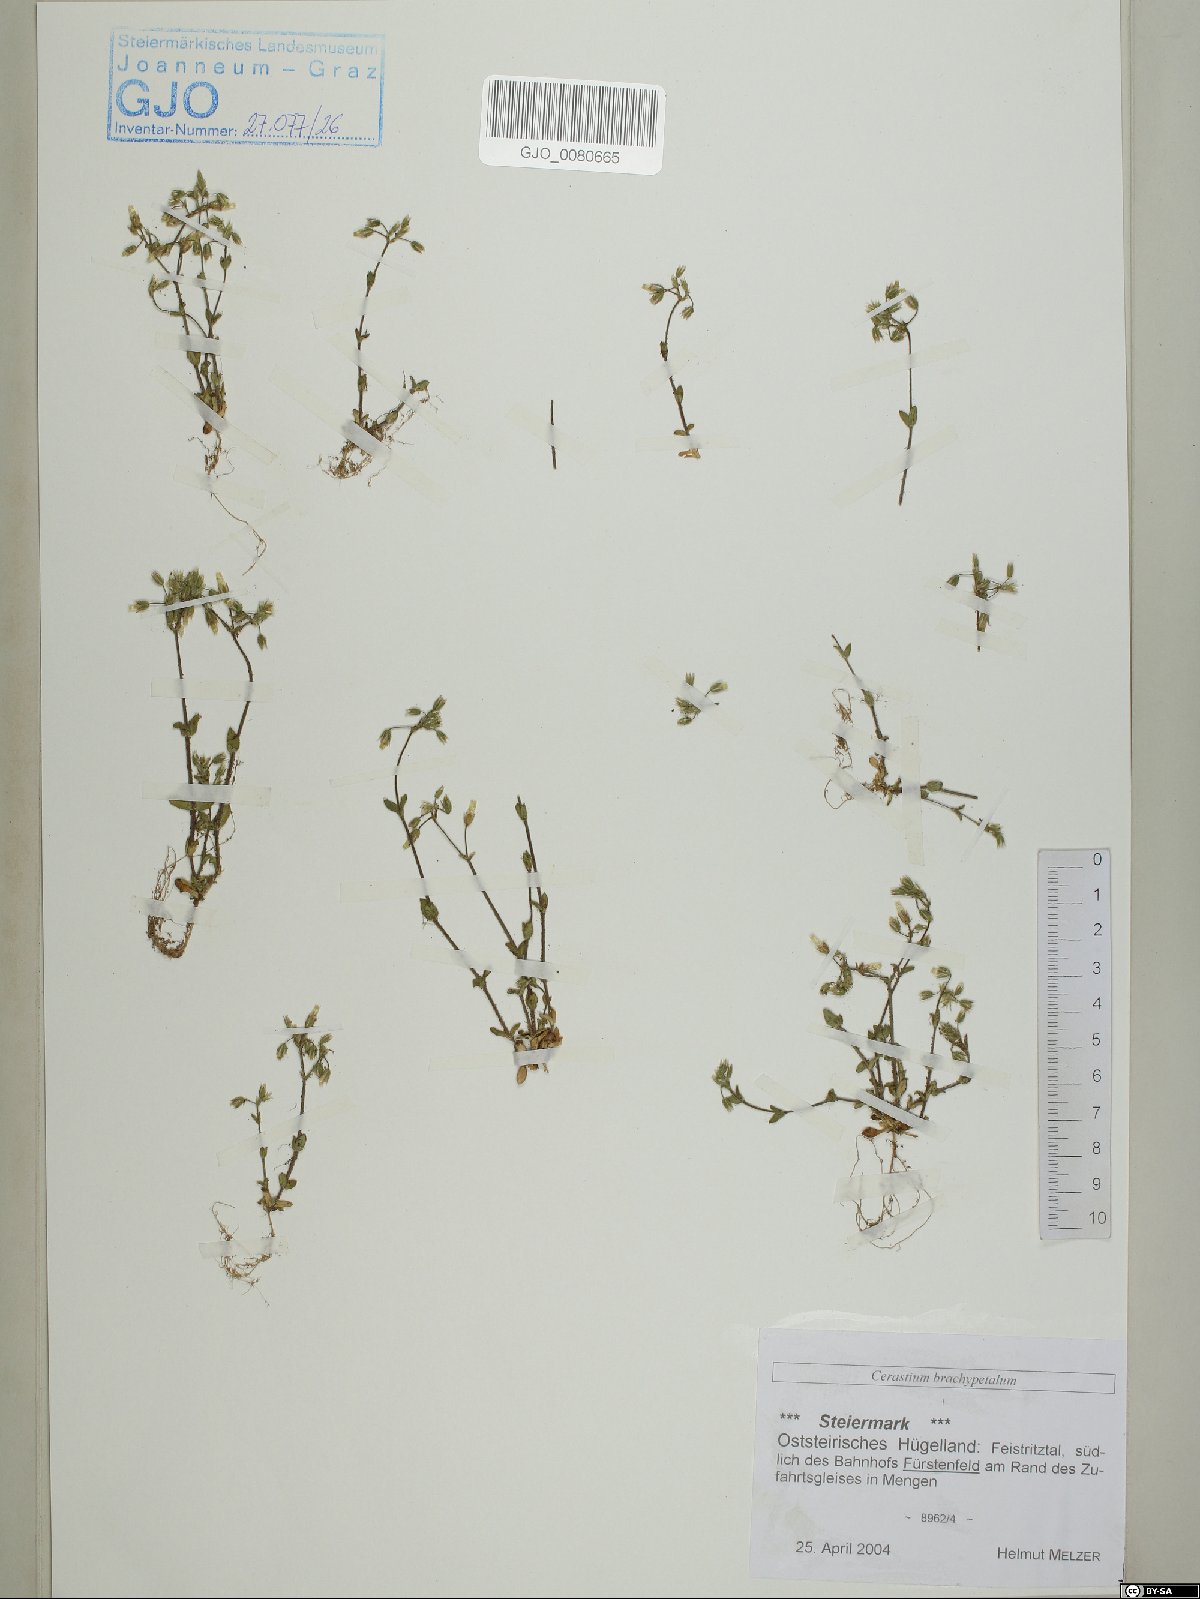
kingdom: Plantae
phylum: Tracheophyta
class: Magnoliopsida
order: Caryophyllales
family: Caryophyllaceae
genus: Cerastium
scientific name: Cerastium brachypetalum
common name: Grey mouse-ear
